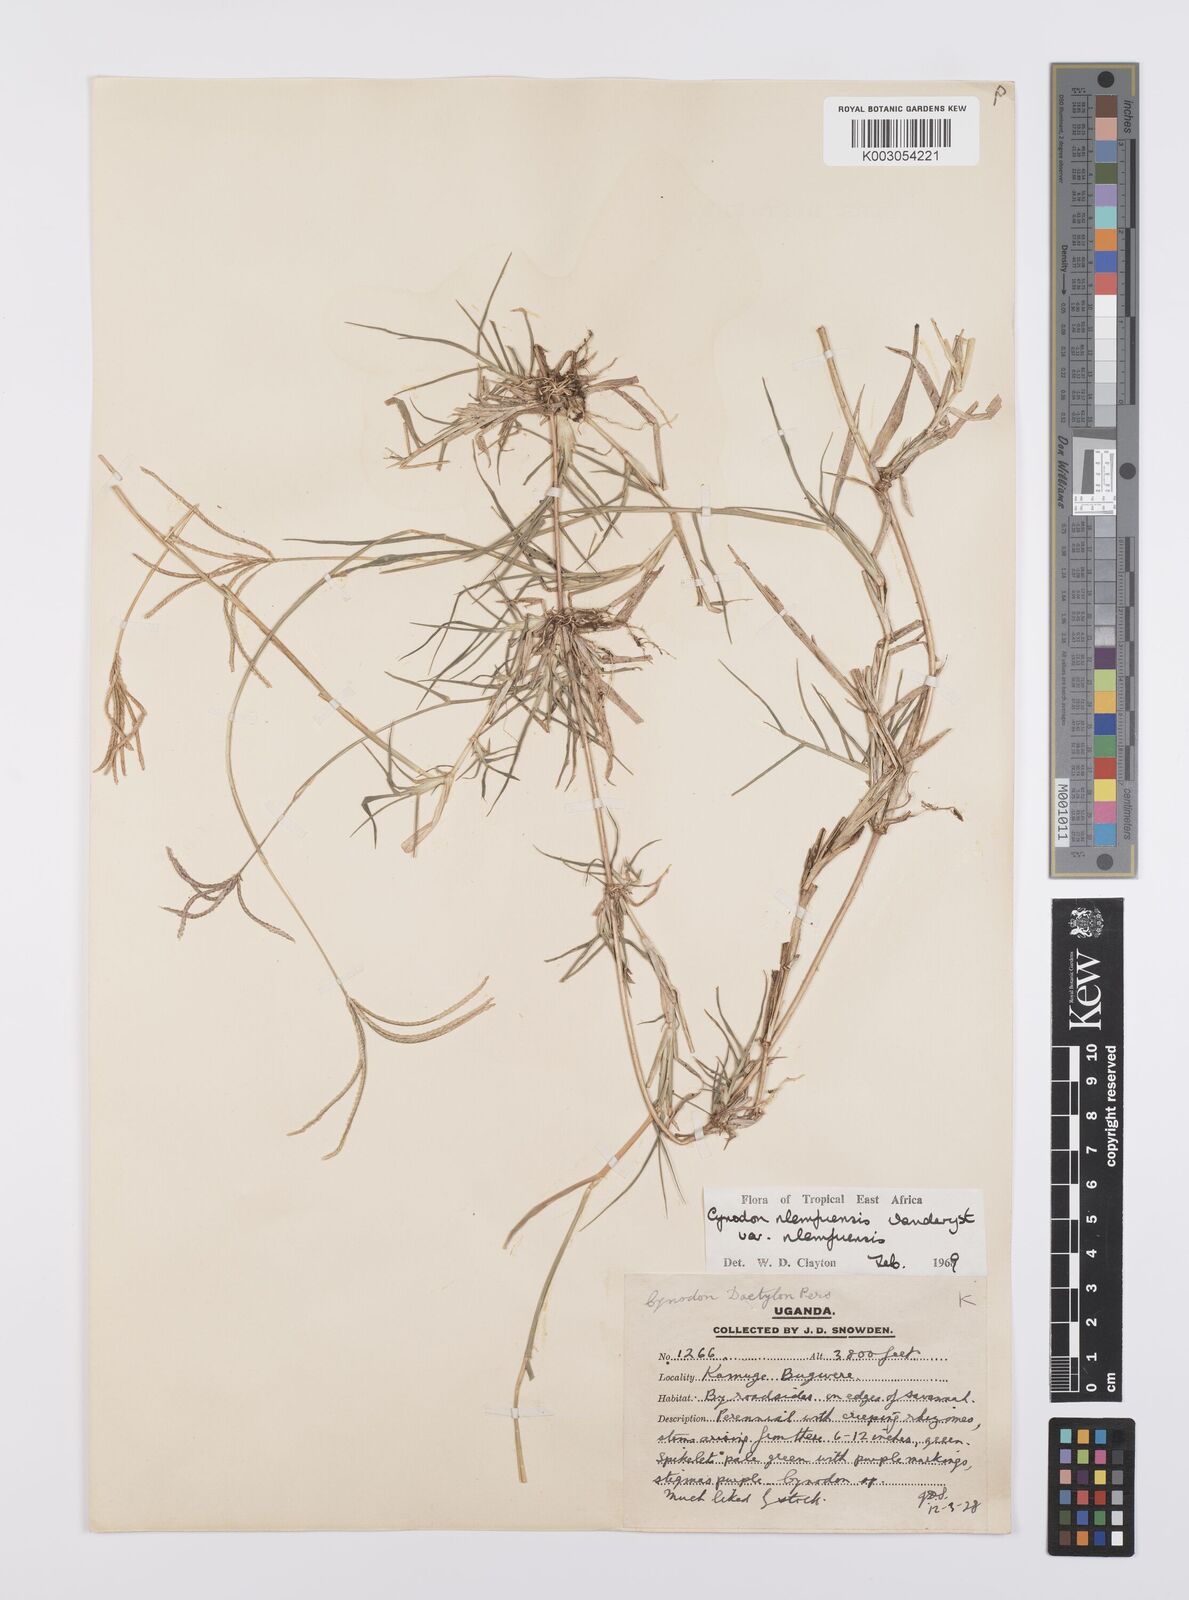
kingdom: Plantae
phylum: Tracheophyta
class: Liliopsida
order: Poales
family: Poaceae
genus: Cynodon
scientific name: Cynodon nlemfuensis
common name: African bermudagrass
